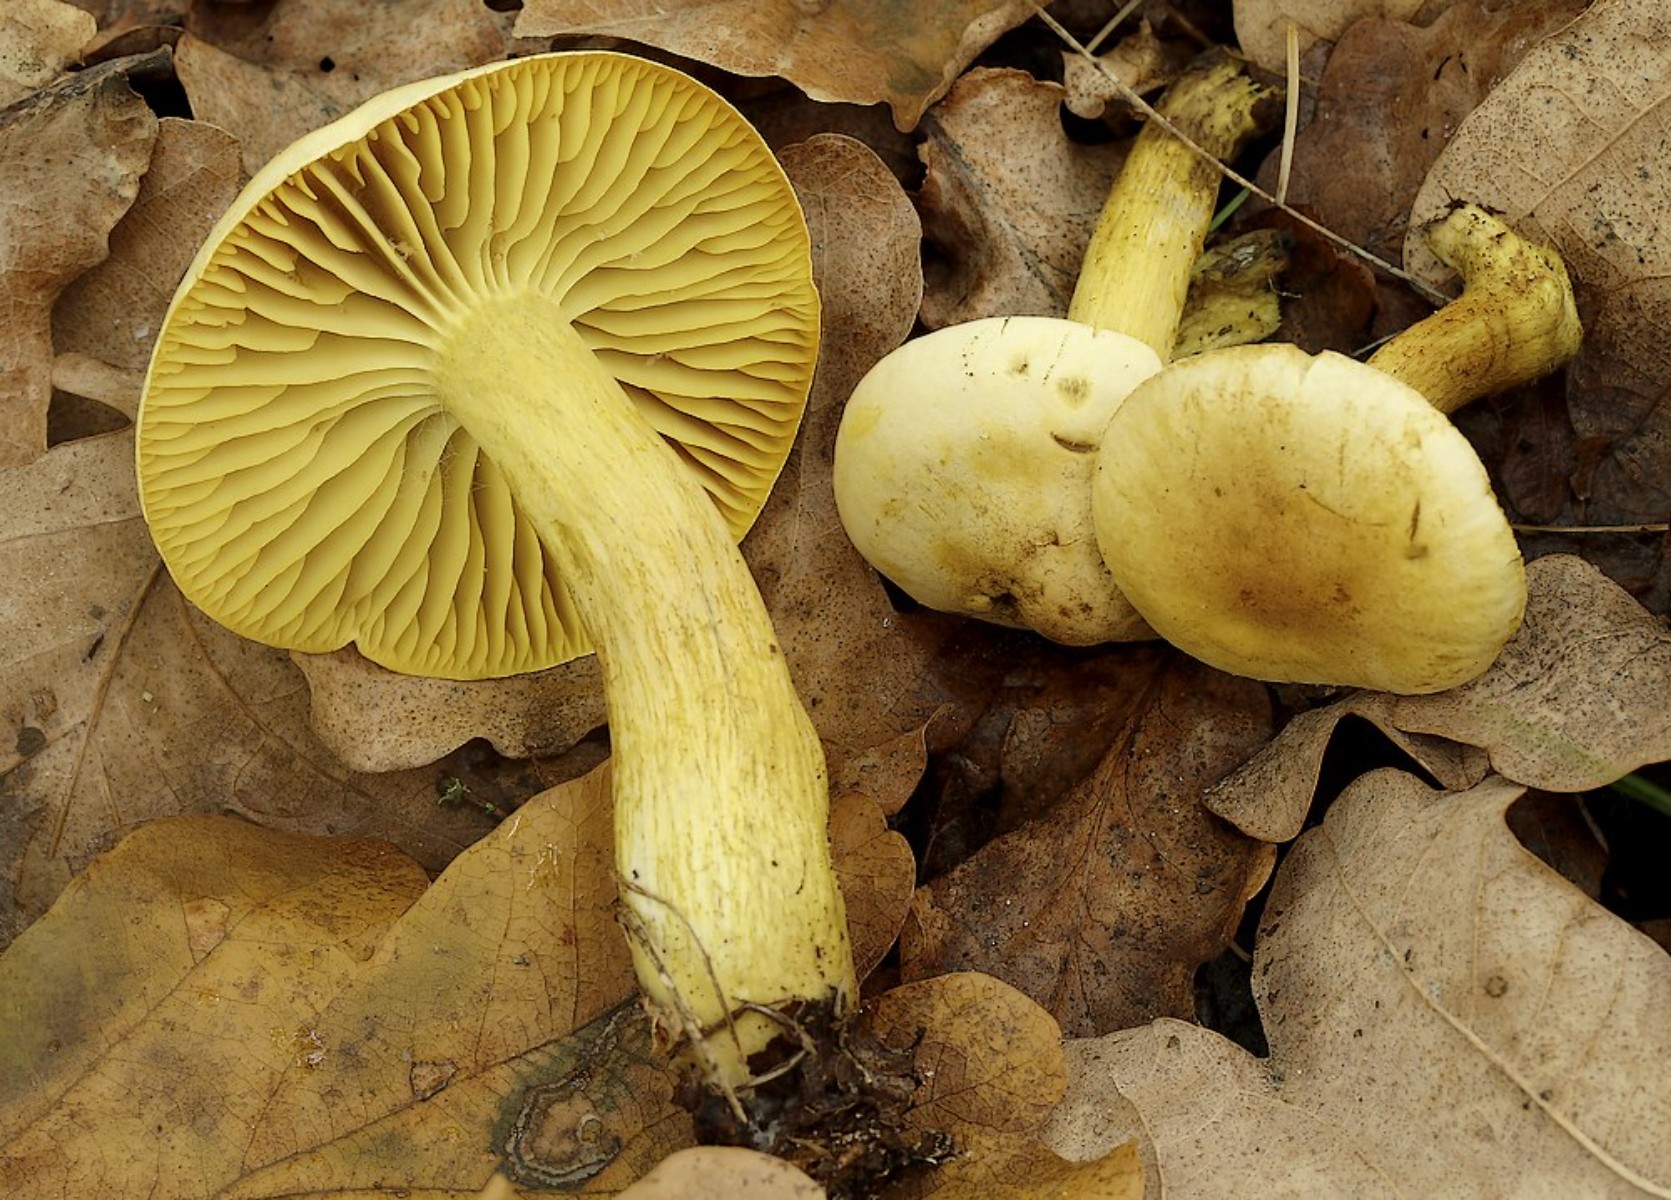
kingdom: Fungi
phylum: Basidiomycota
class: Agaricomycetes
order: Agaricales
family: Tricholomataceae
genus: Tricholoma
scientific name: Tricholoma sulphureum
